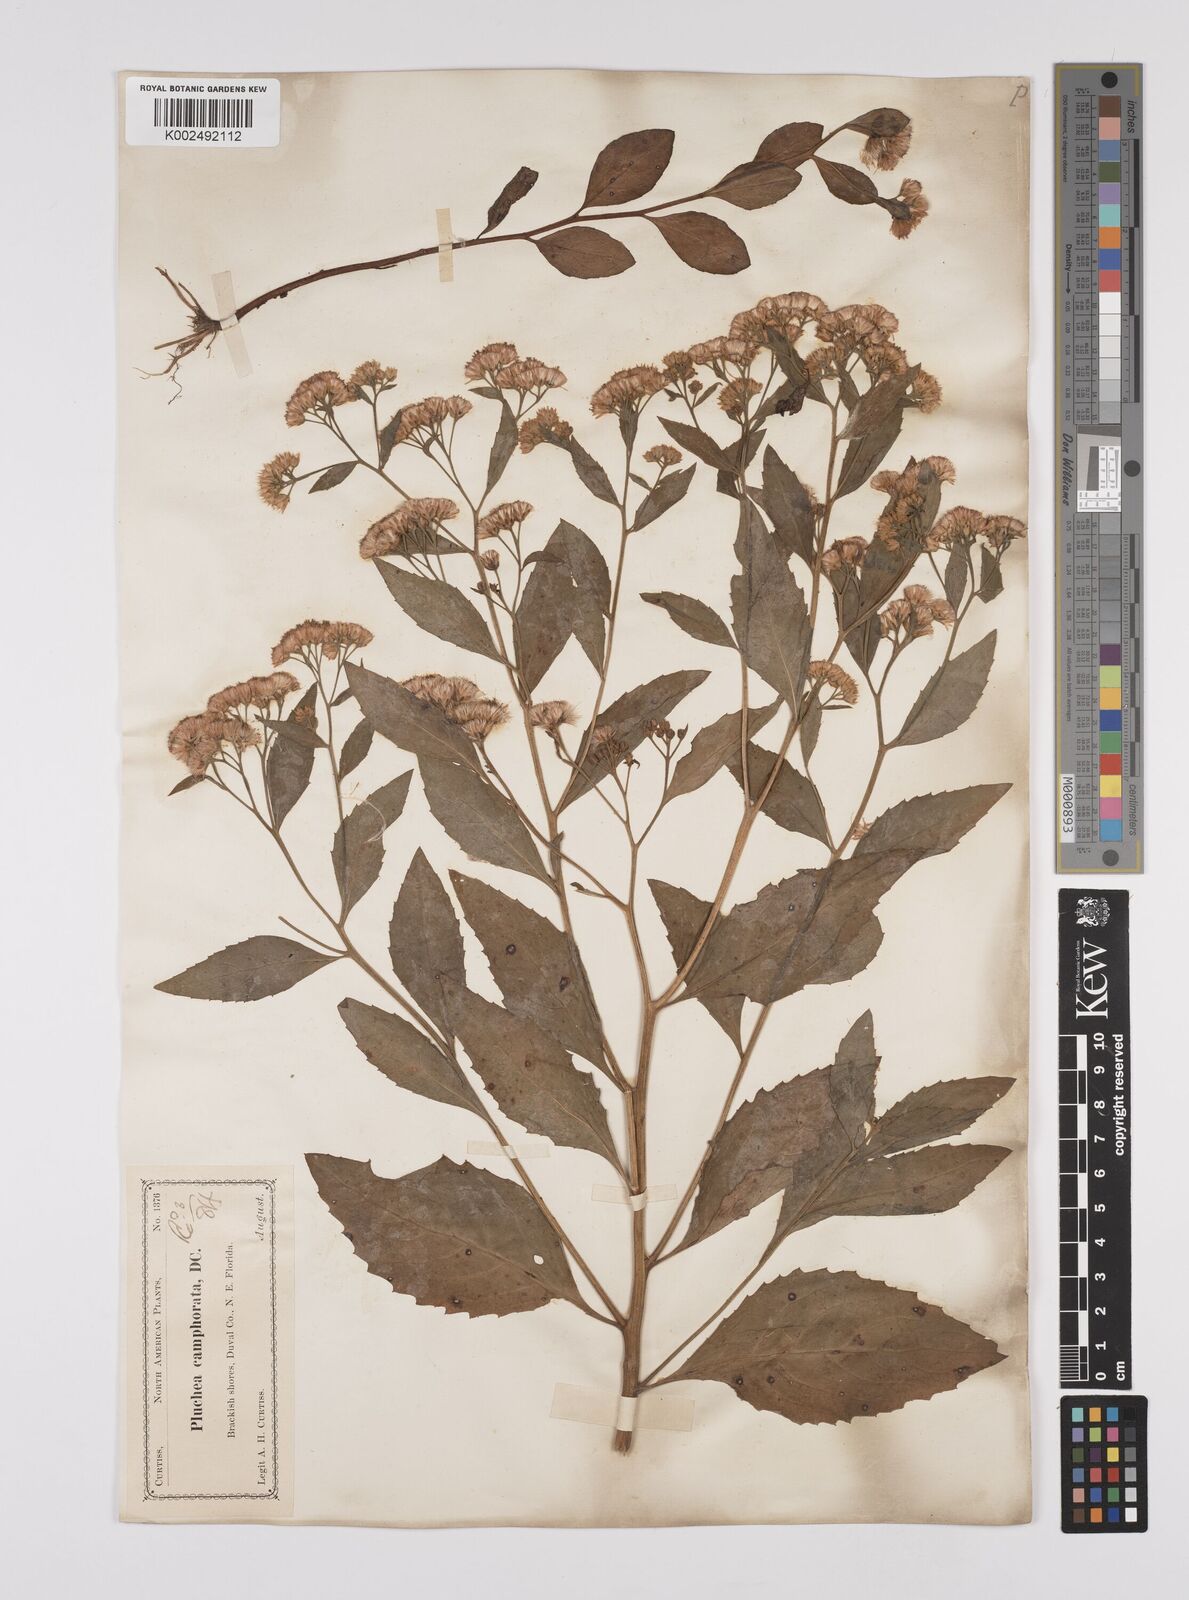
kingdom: Plantae
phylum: Tracheophyta
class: Magnoliopsida
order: Asterales
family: Asteraceae
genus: Pluchea
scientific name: Pluchea
